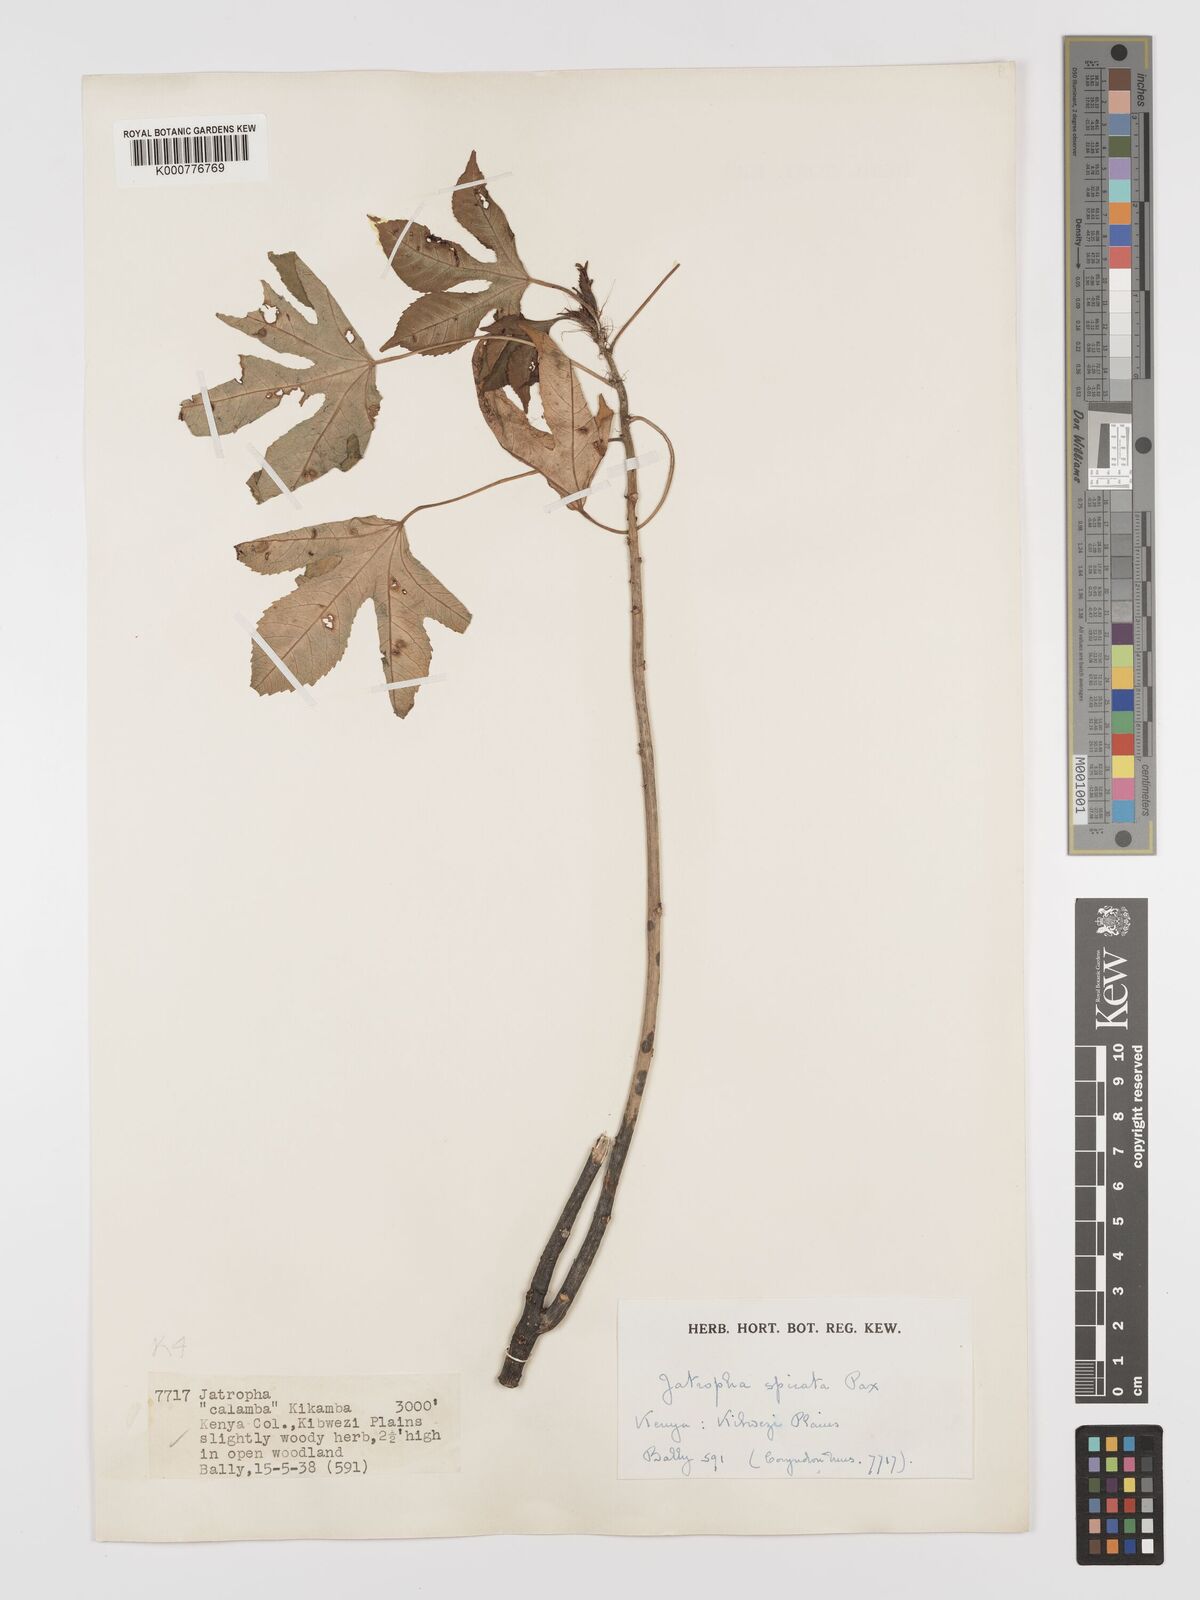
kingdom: Plantae
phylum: Tracheophyta
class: Magnoliopsida
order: Malpighiales
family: Euphorbiaceae
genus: Jatropha
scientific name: Jatropha spicata
